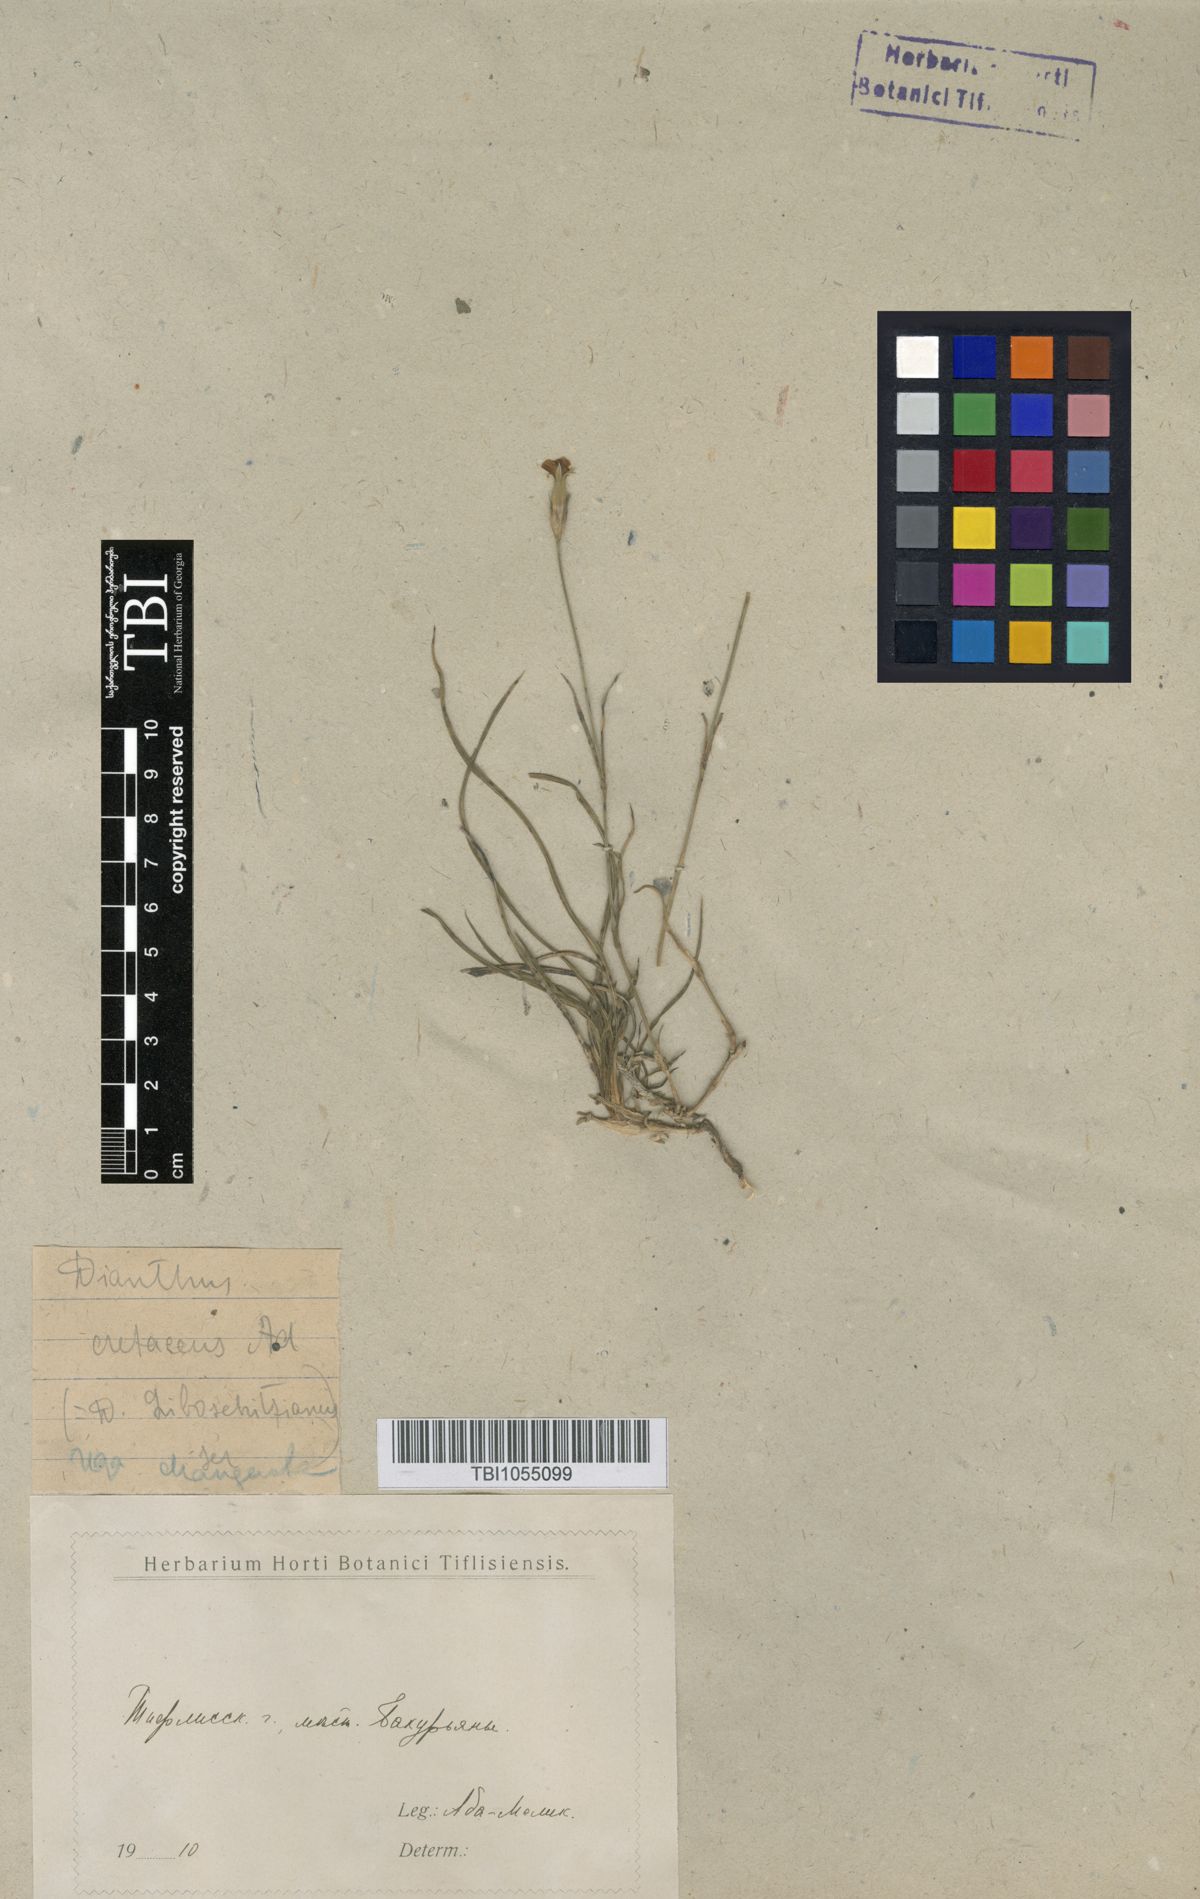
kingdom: Plantae
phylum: Tracheophyta
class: Magnoliopsida
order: Caryophyllales
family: Caryophyllaceae
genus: Dianthus
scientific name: Dianthus cretaceus
